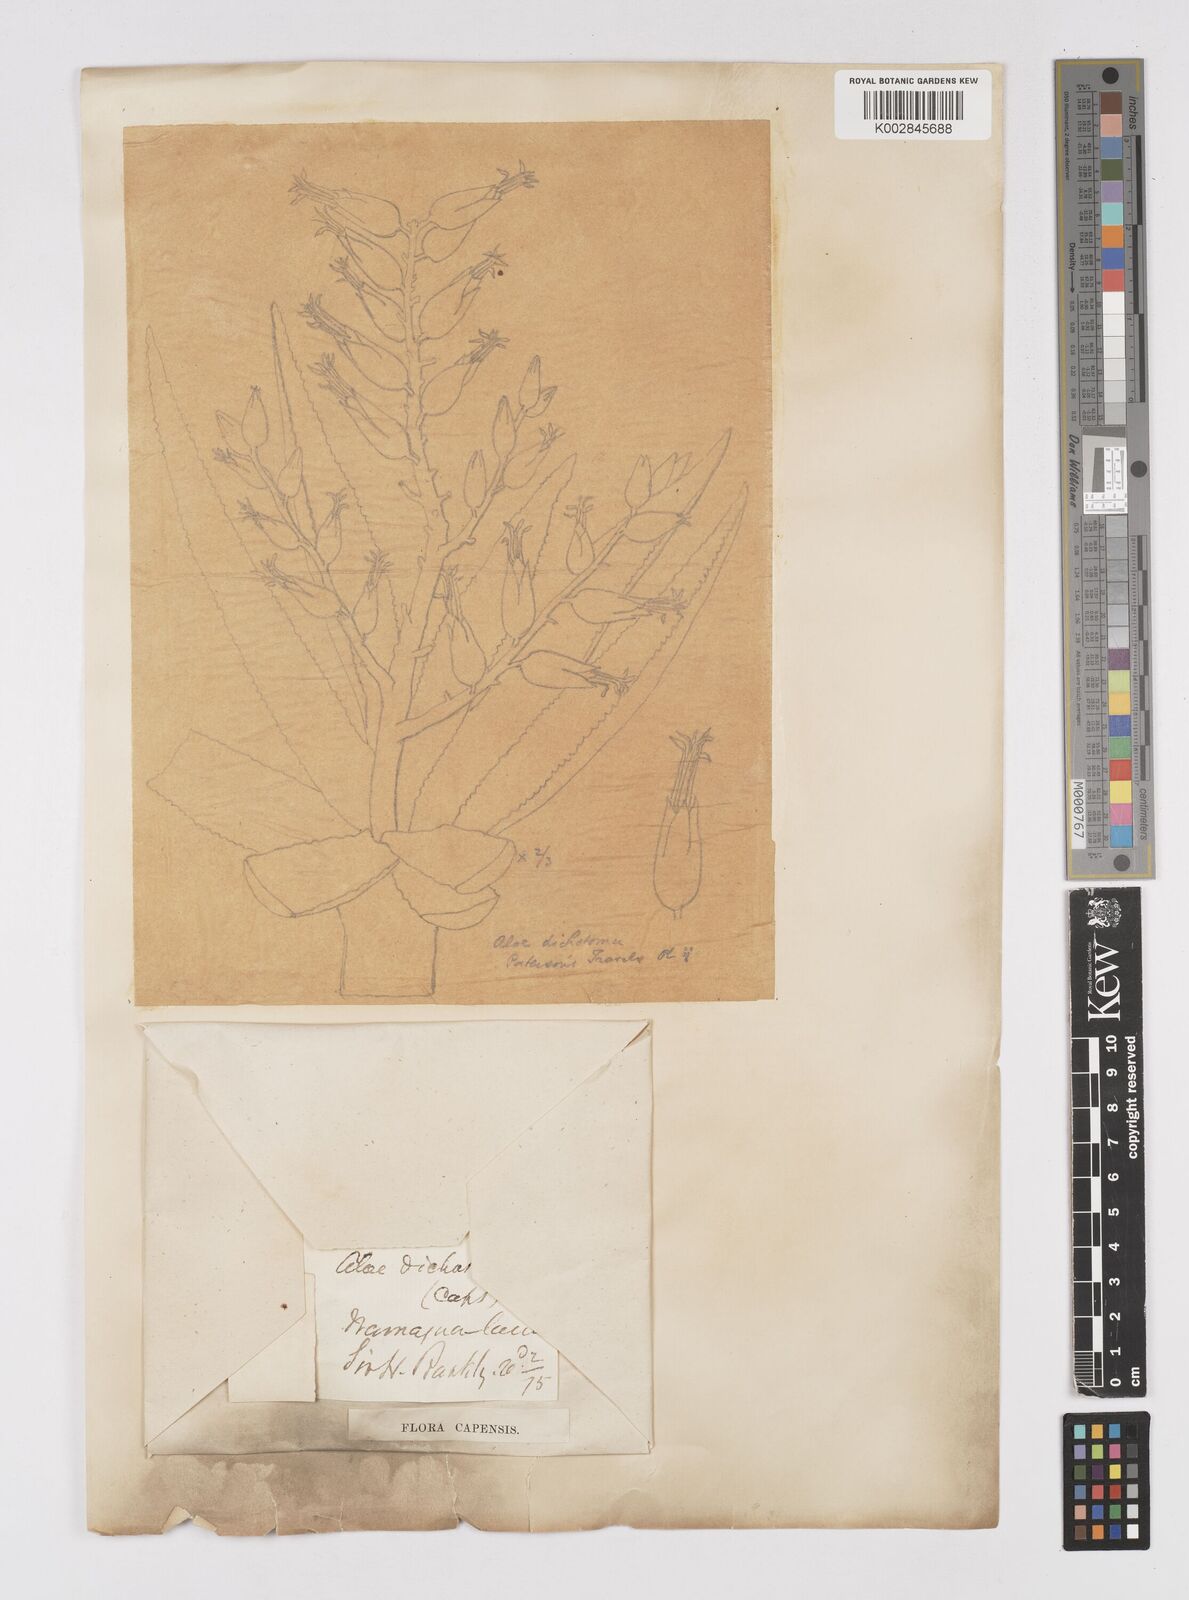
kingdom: Plantae
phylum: Tracheophyta
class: Liliopsida
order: Asparagales
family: Asphodelaceae
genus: Aloidendron
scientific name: Aloidendron dichotomum
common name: Quiver tree
